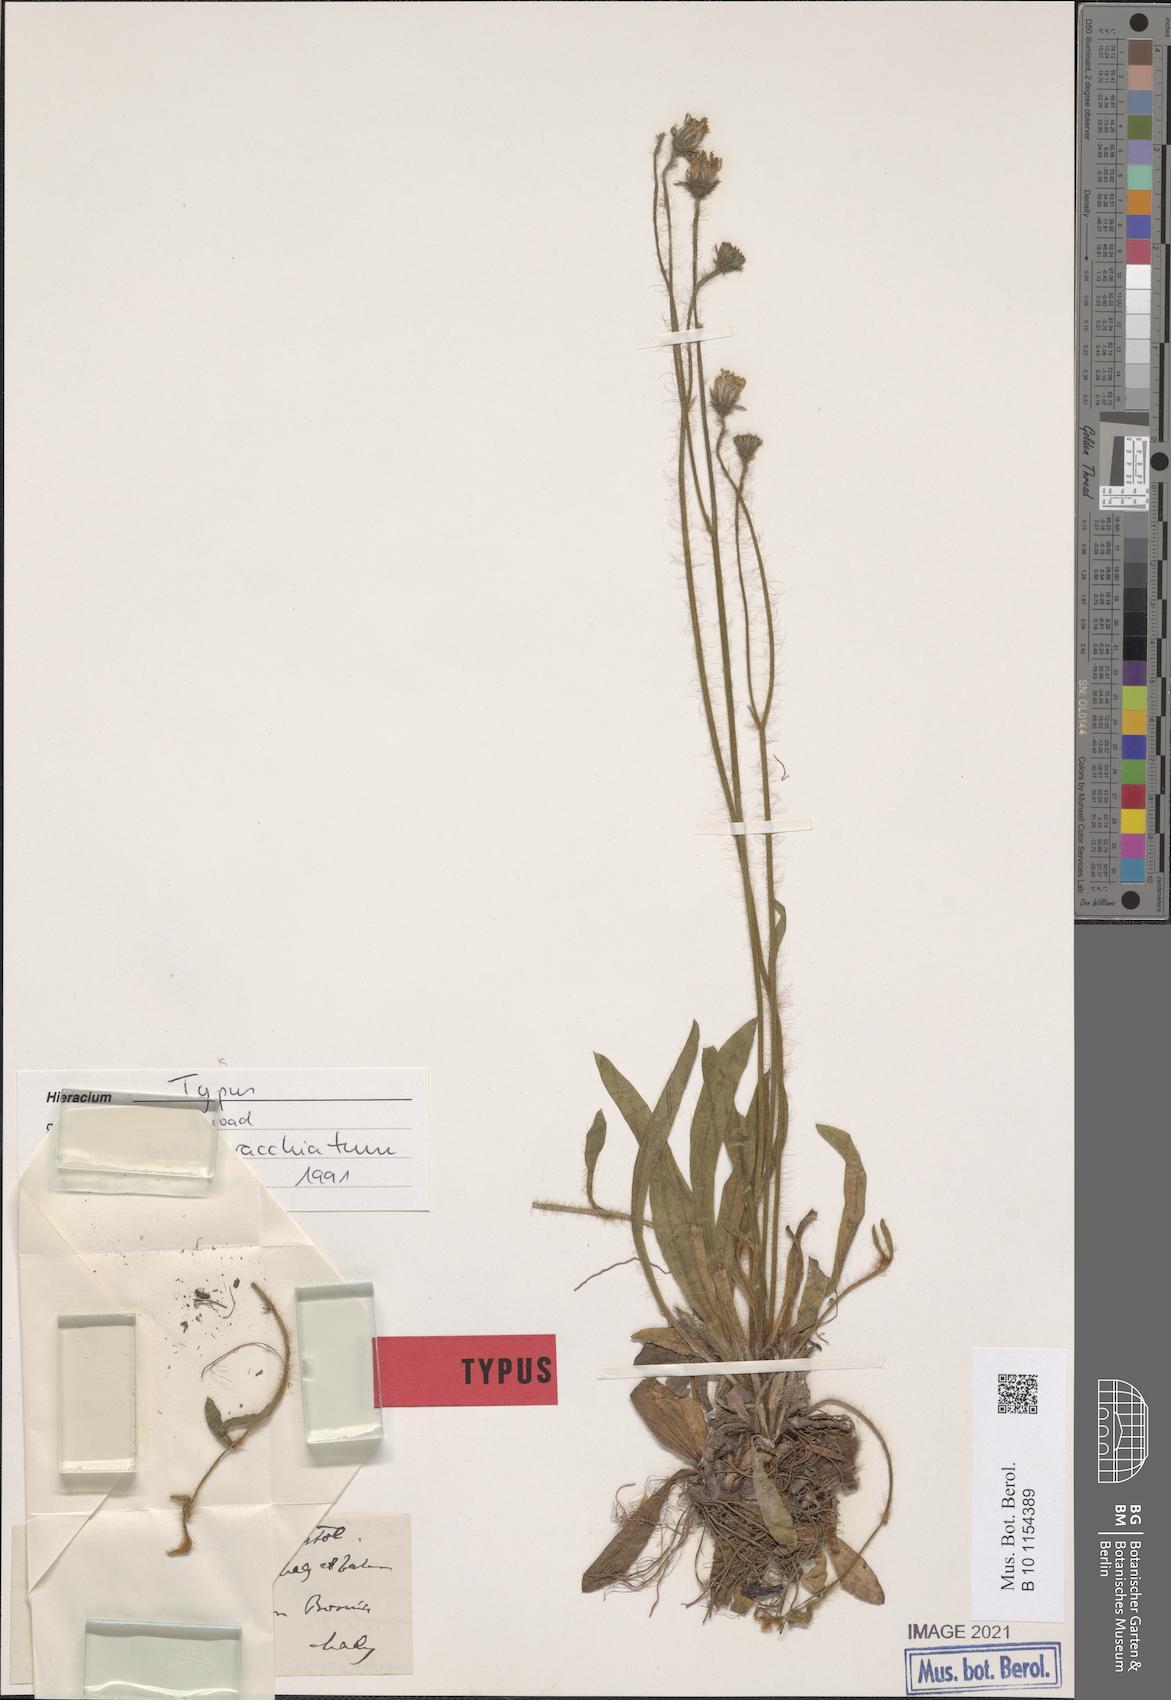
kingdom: Plantae
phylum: Tracheophyta
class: Magnoliopsida
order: Asterales
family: Asteraceae
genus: Pilosella
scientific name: Pilosella acutifolia
